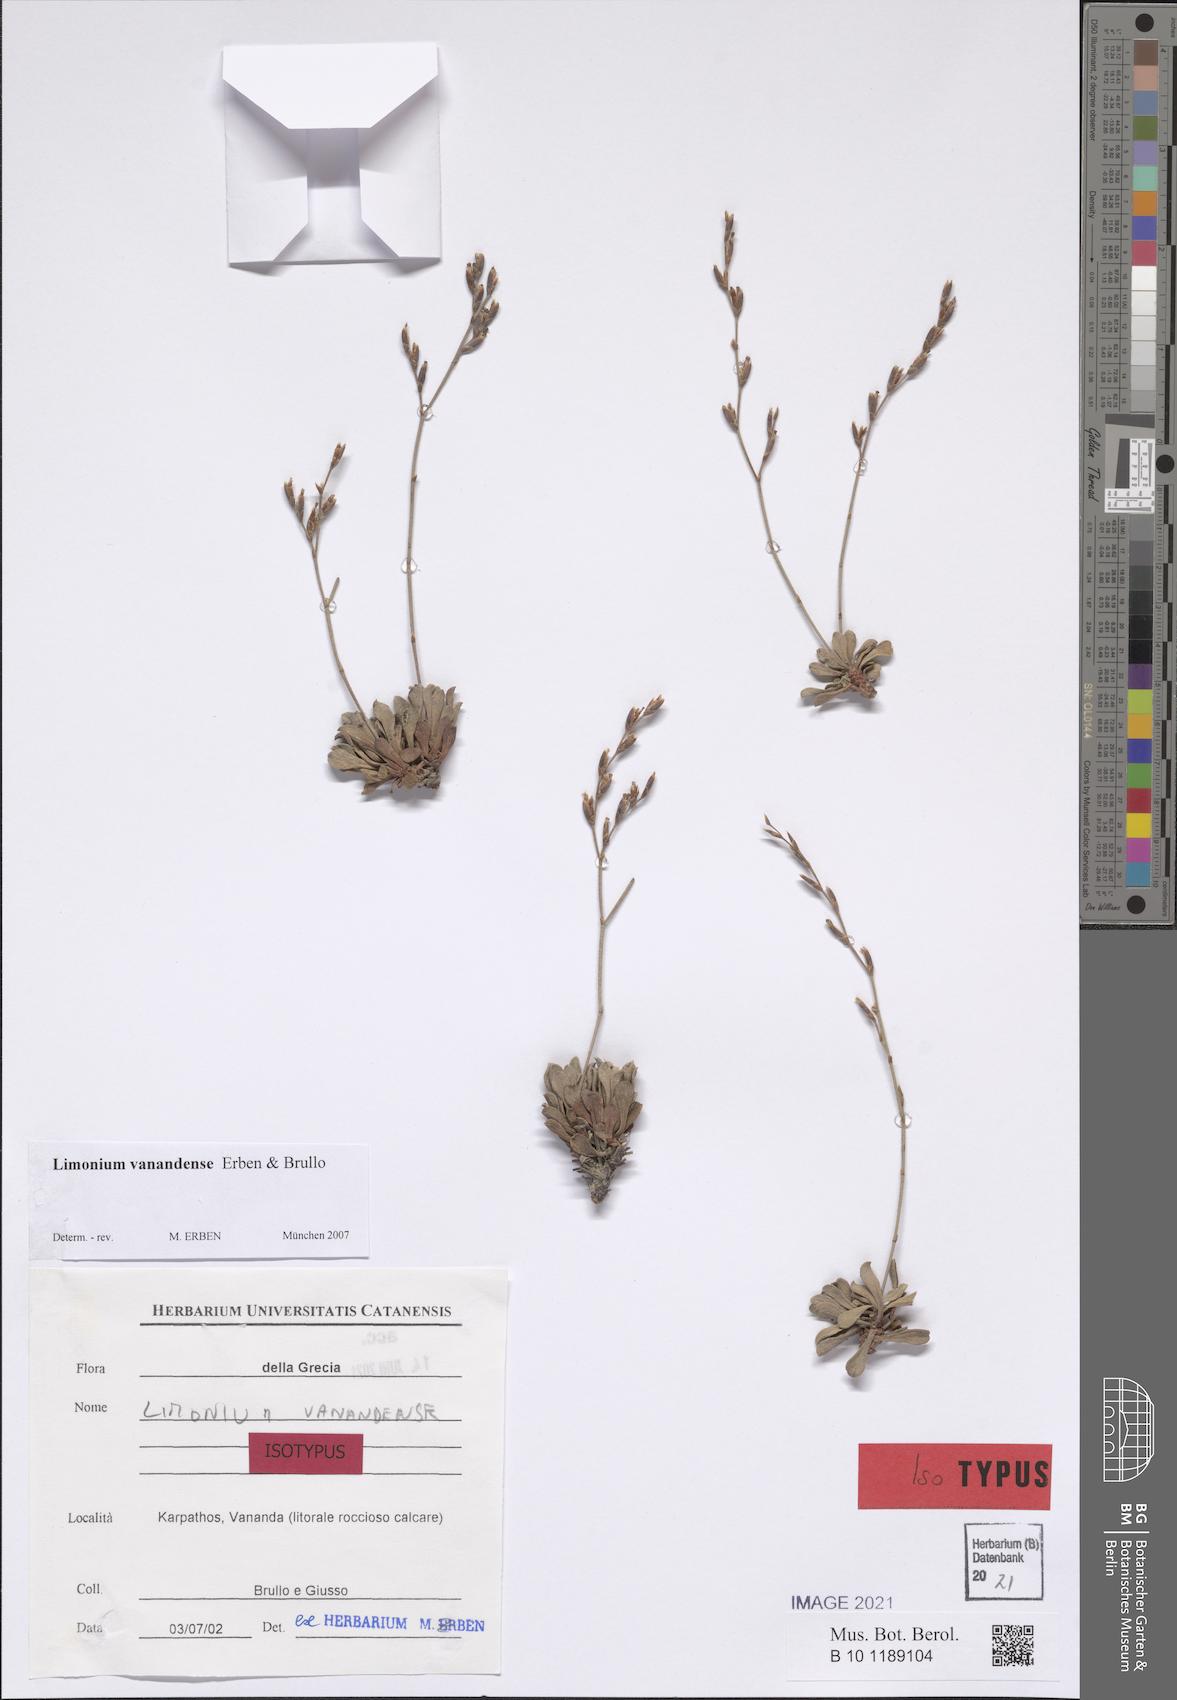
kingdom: Plantae
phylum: Tracheophyta
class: Magnoliopsida
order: Caryophyllales
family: Plumbaginaceae
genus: Limonium
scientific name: Limonium vanandense
